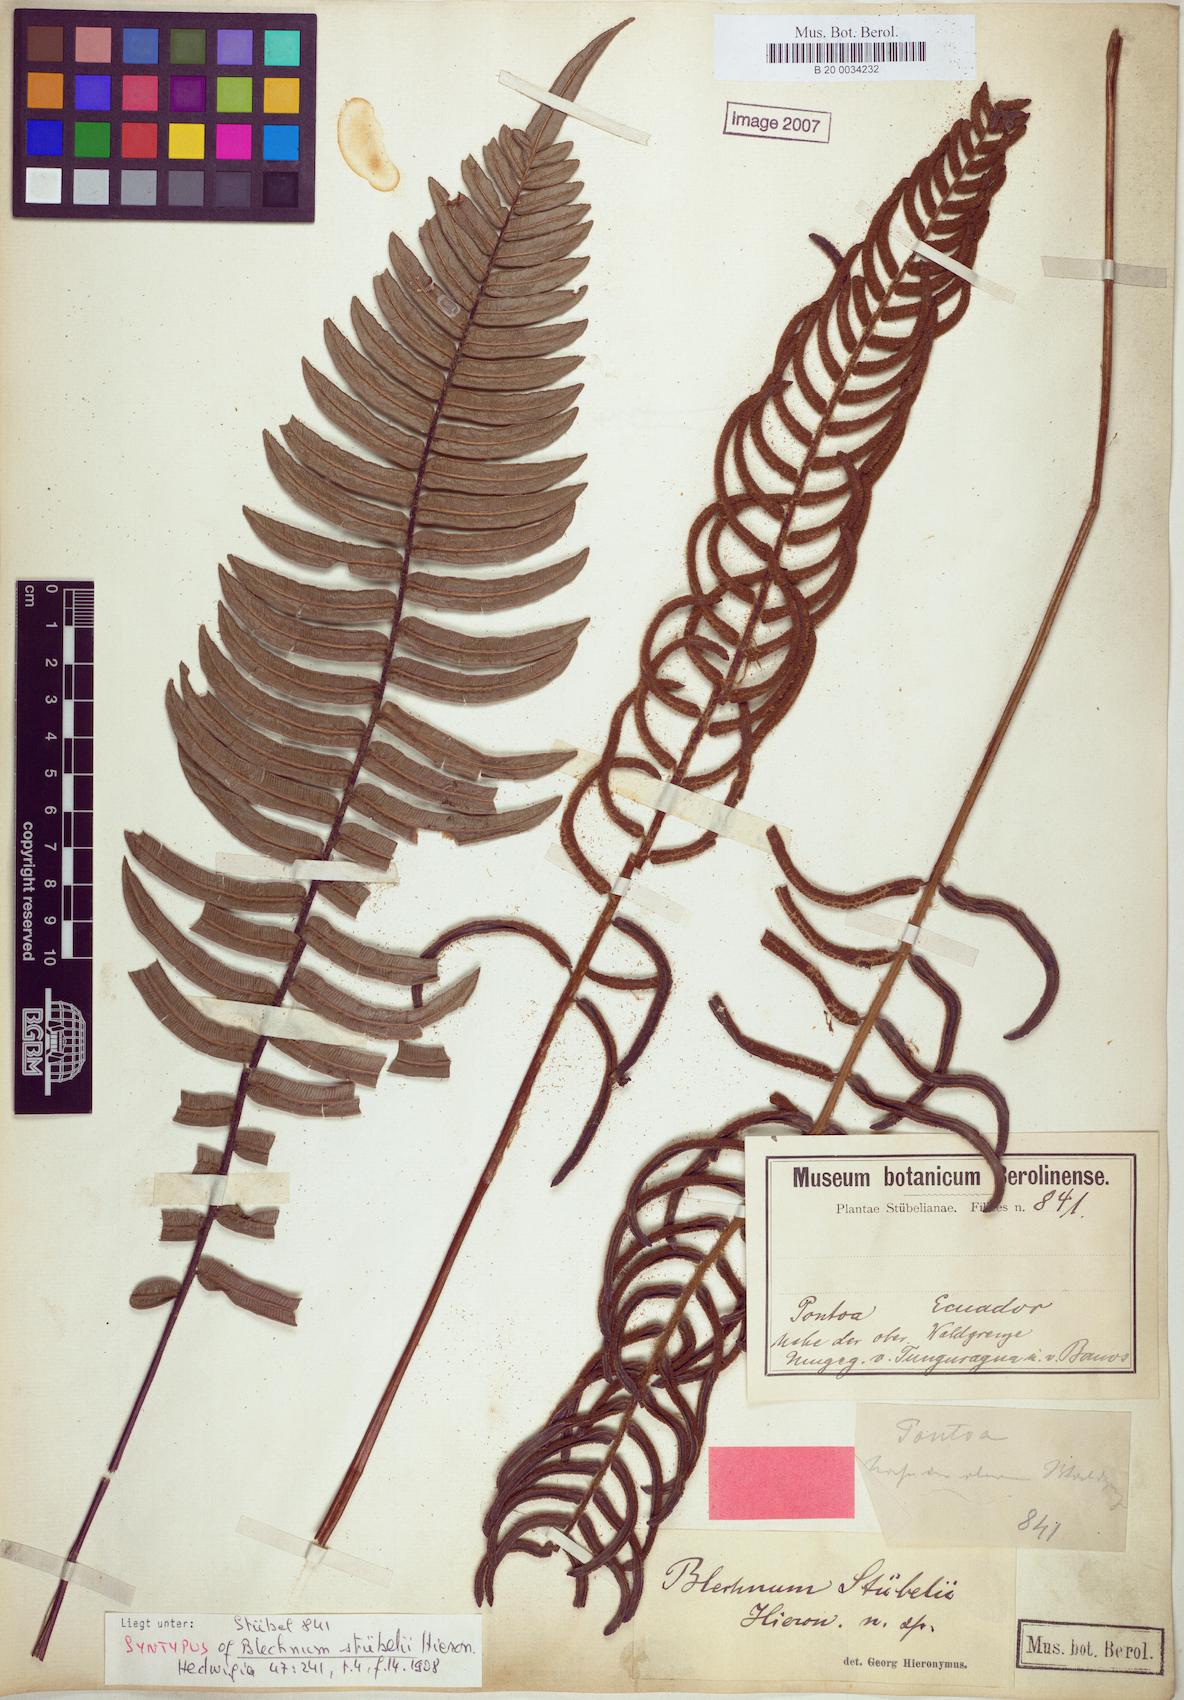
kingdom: Plantae
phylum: Tracheophyta
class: Polypodiopsida
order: Polypodiales
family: Blechnaceae
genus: Parablechnum
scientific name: Parablechnum stuebelii
